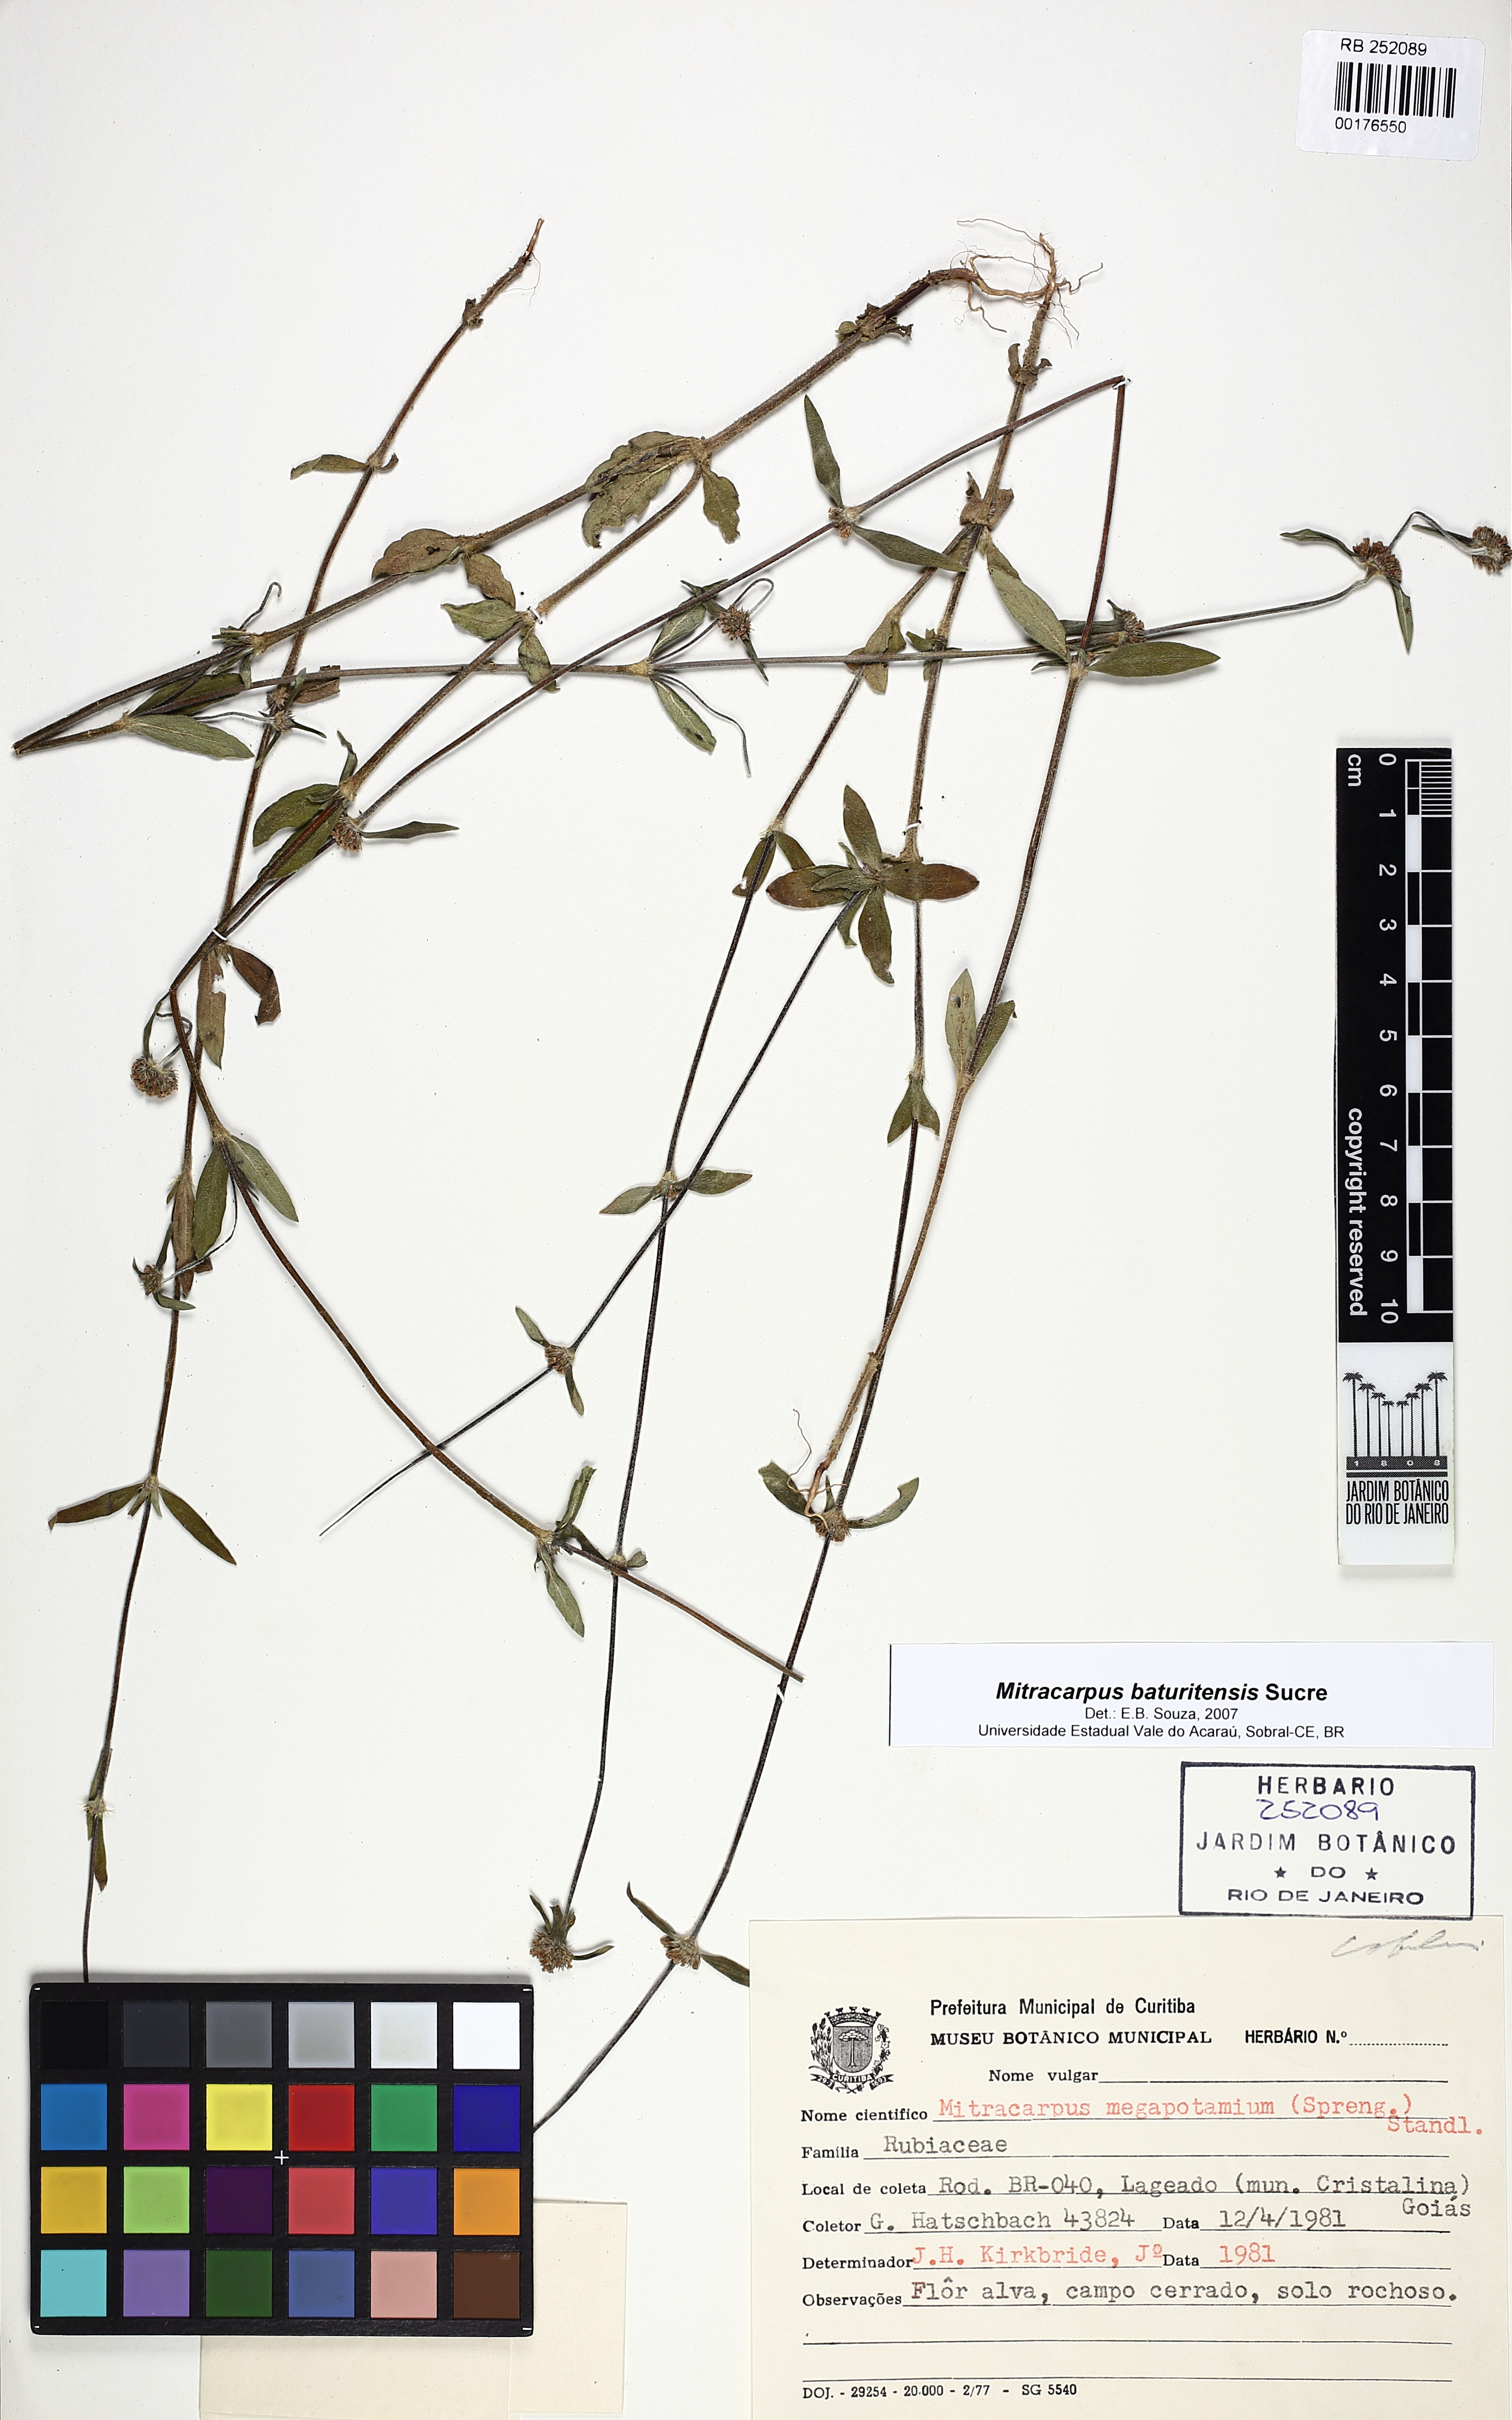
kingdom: Plantae
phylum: Tracheophyta
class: Magnoliopsida
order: Gentianales
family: Rubiaceae
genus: Mitracarpus
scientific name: Mitracarpus baturitensis
